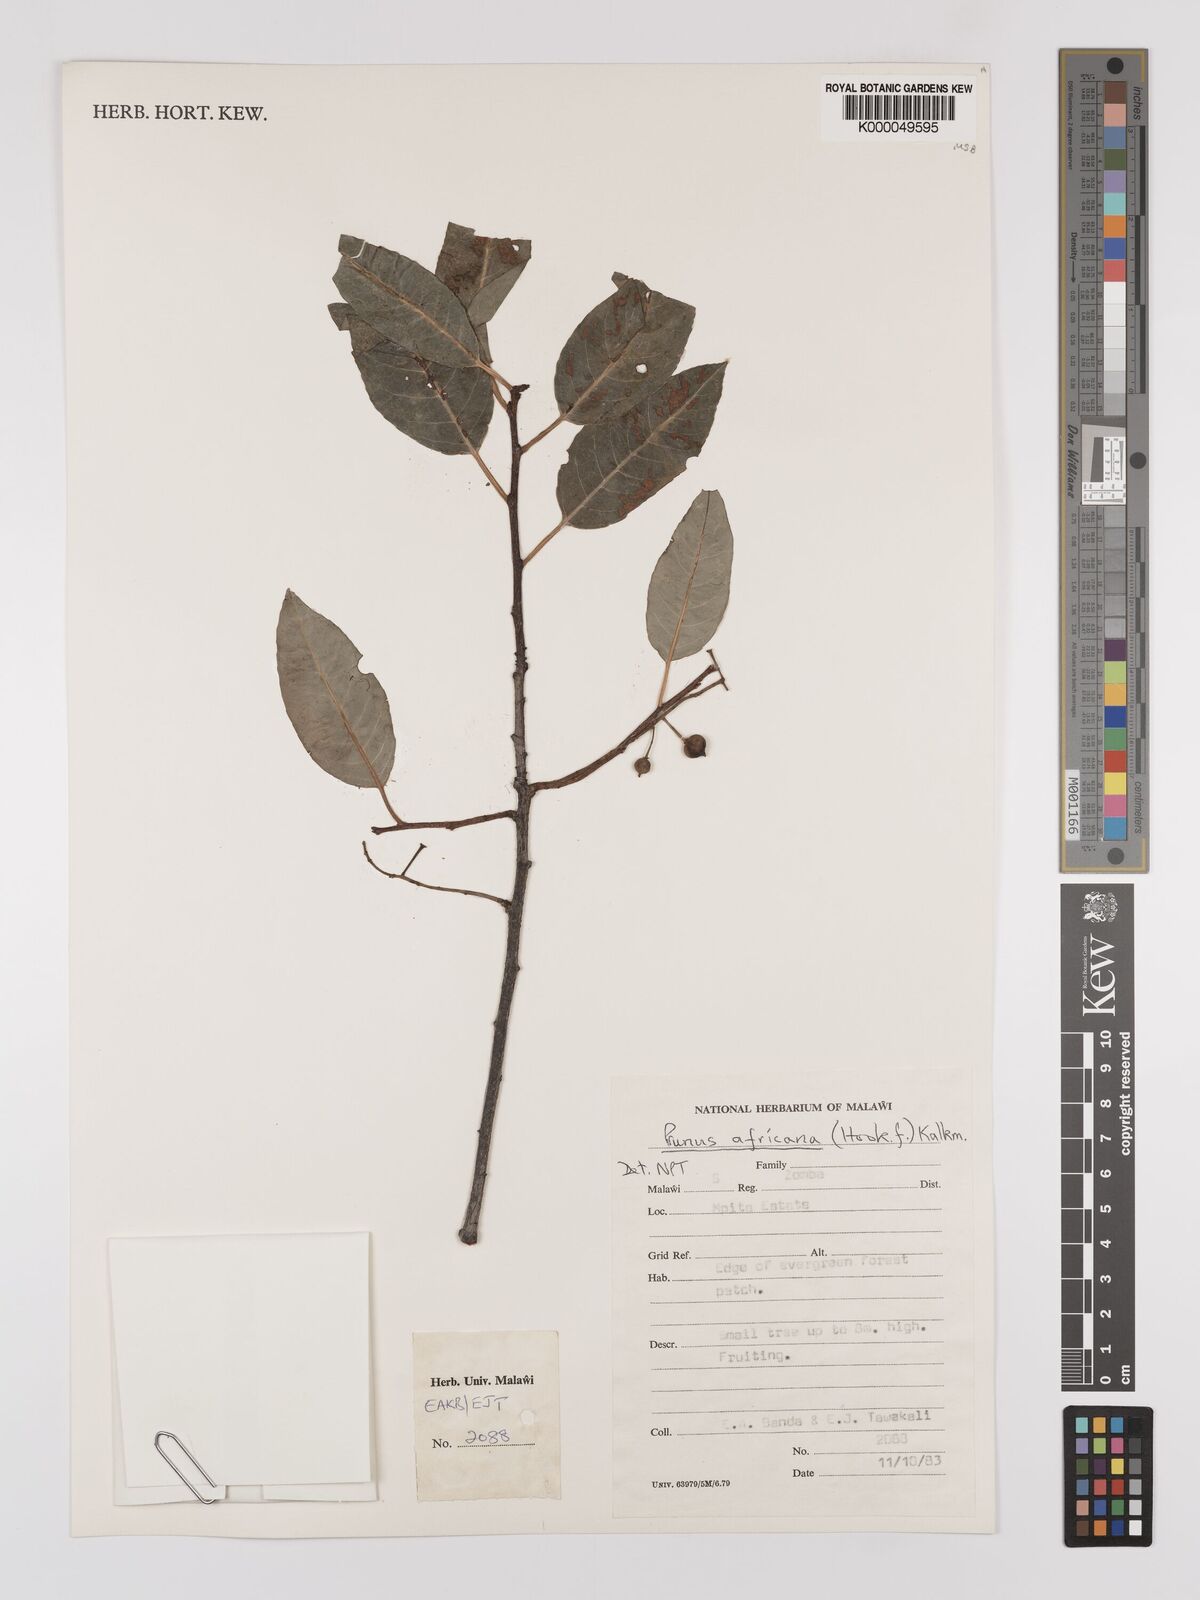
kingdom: Plantae
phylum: Tracheophyta
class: Magnoliopsida
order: Rosales
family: Rosaceae
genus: Prunus
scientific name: Prunus africana
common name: African cherry
